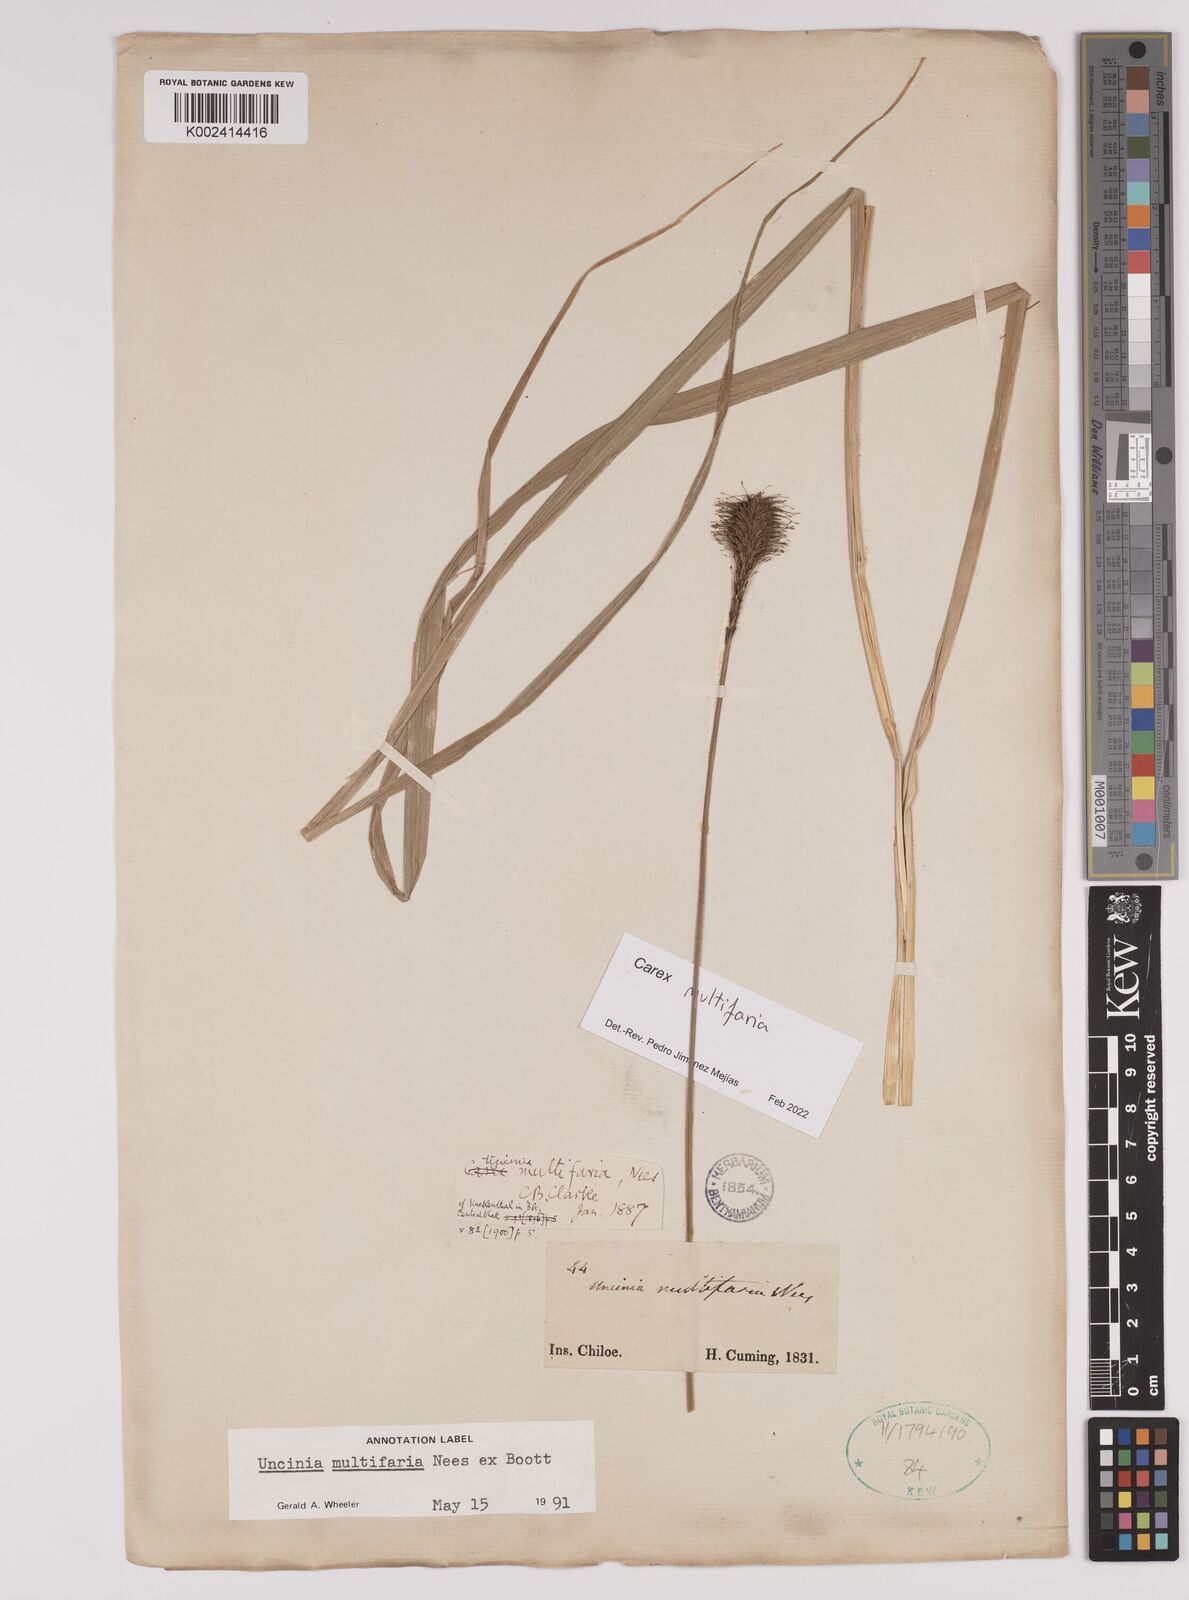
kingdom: Plantae
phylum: Tracheophyta
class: Liliopsida
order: Poales
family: Cyperaceae
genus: Carex
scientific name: Carex multifaria
